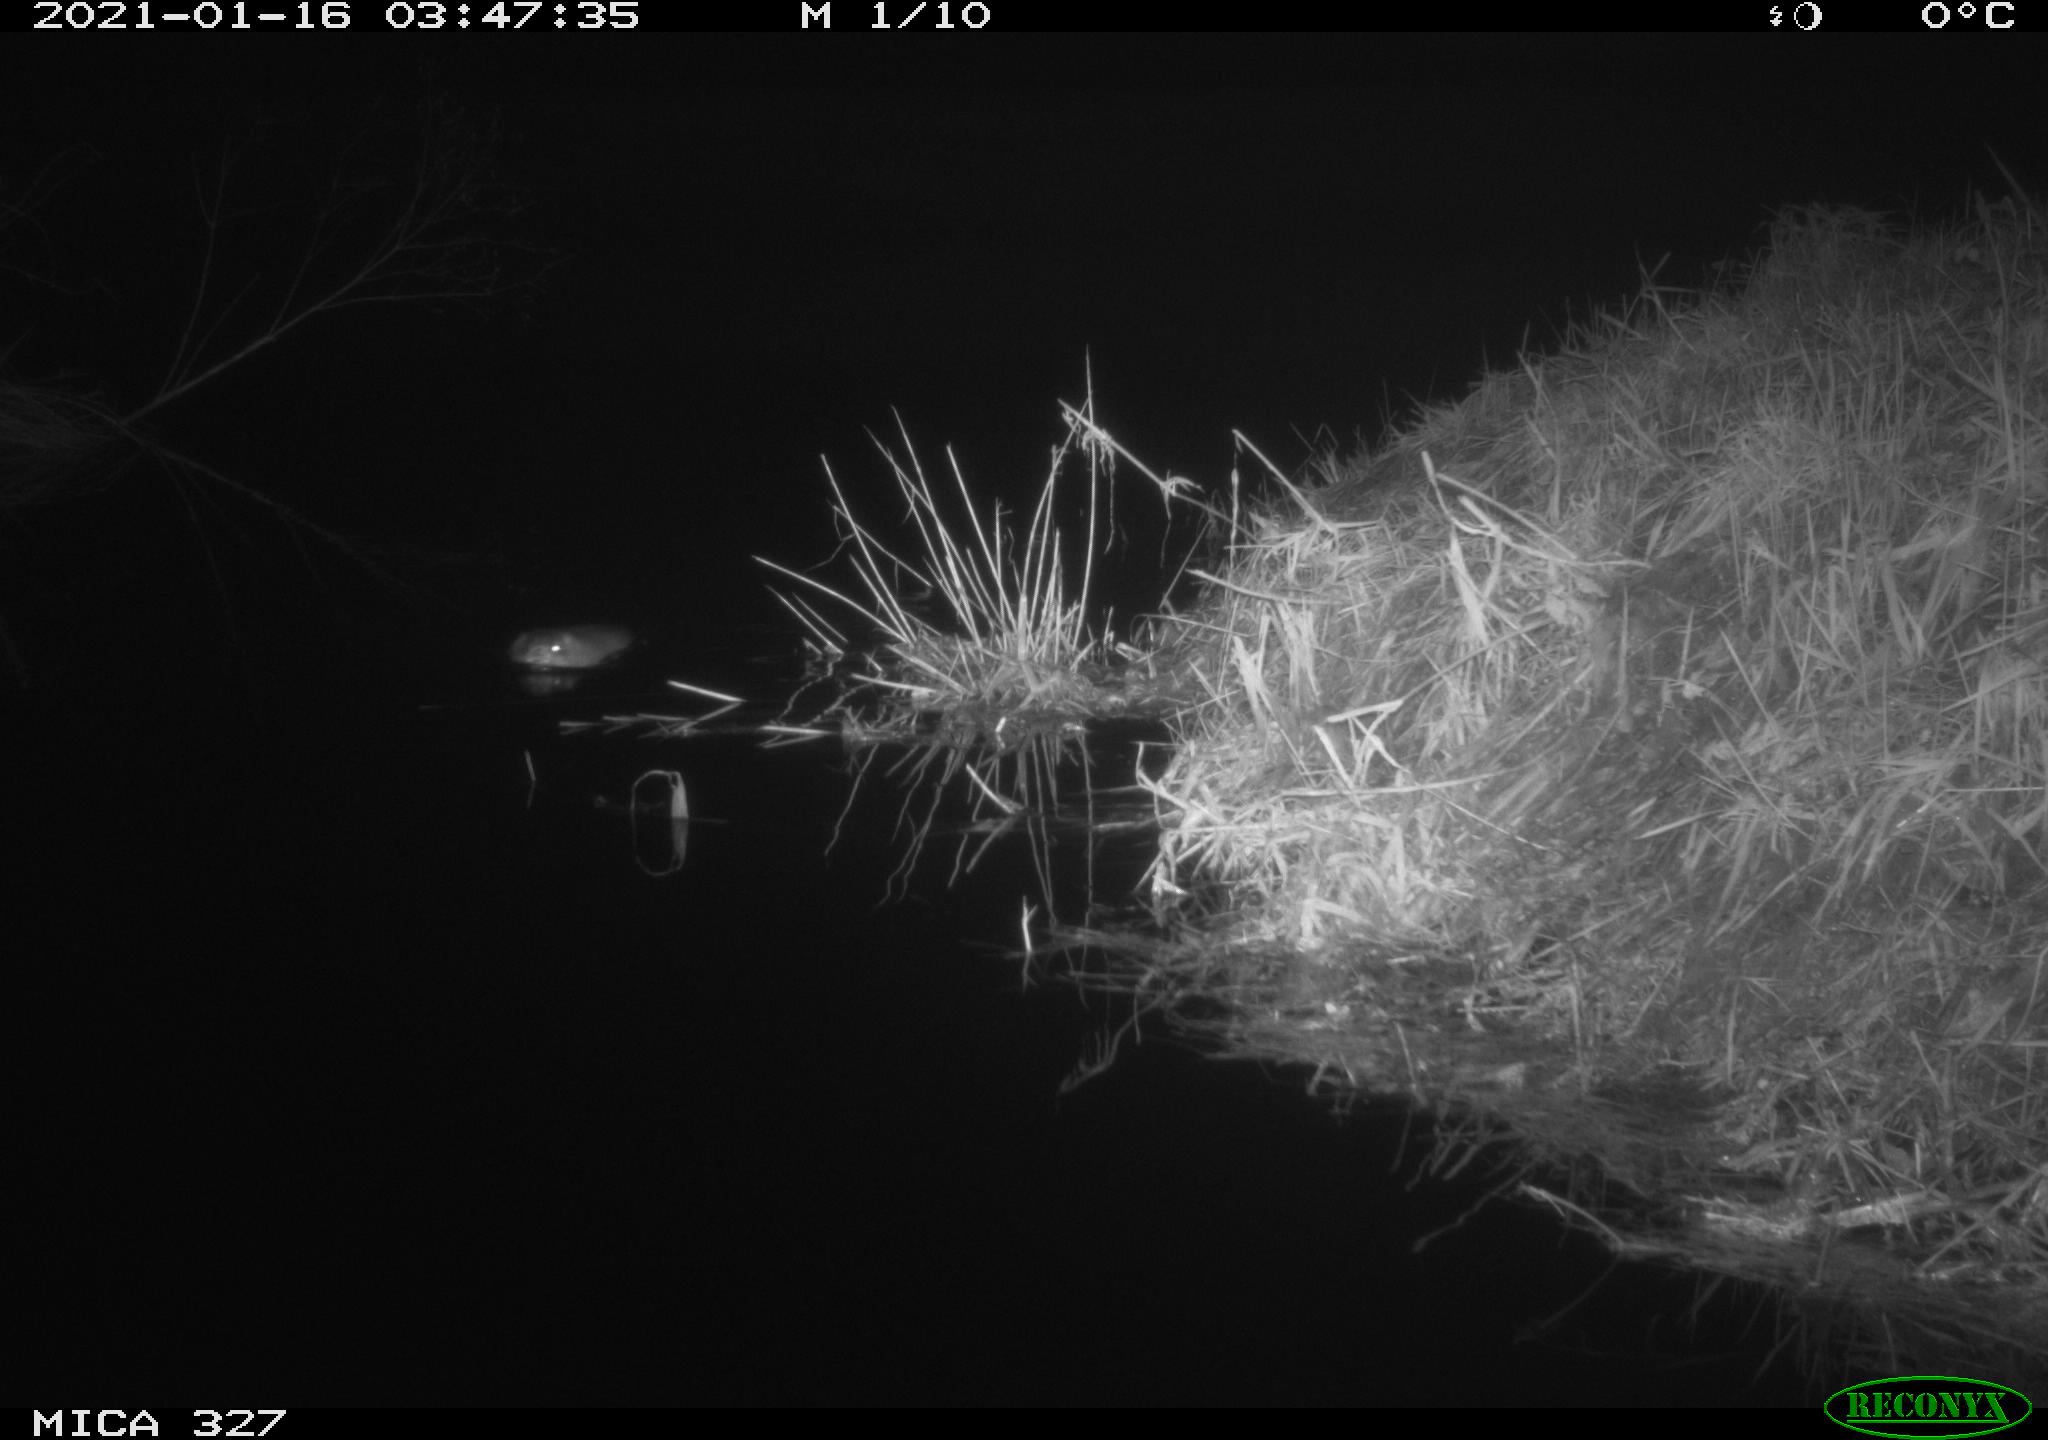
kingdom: Animalia
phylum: Chordata
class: Mammalia
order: Rodentia
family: Cricetidae
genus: Ondatra
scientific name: Ondatra zibethicus
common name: Muskrat
